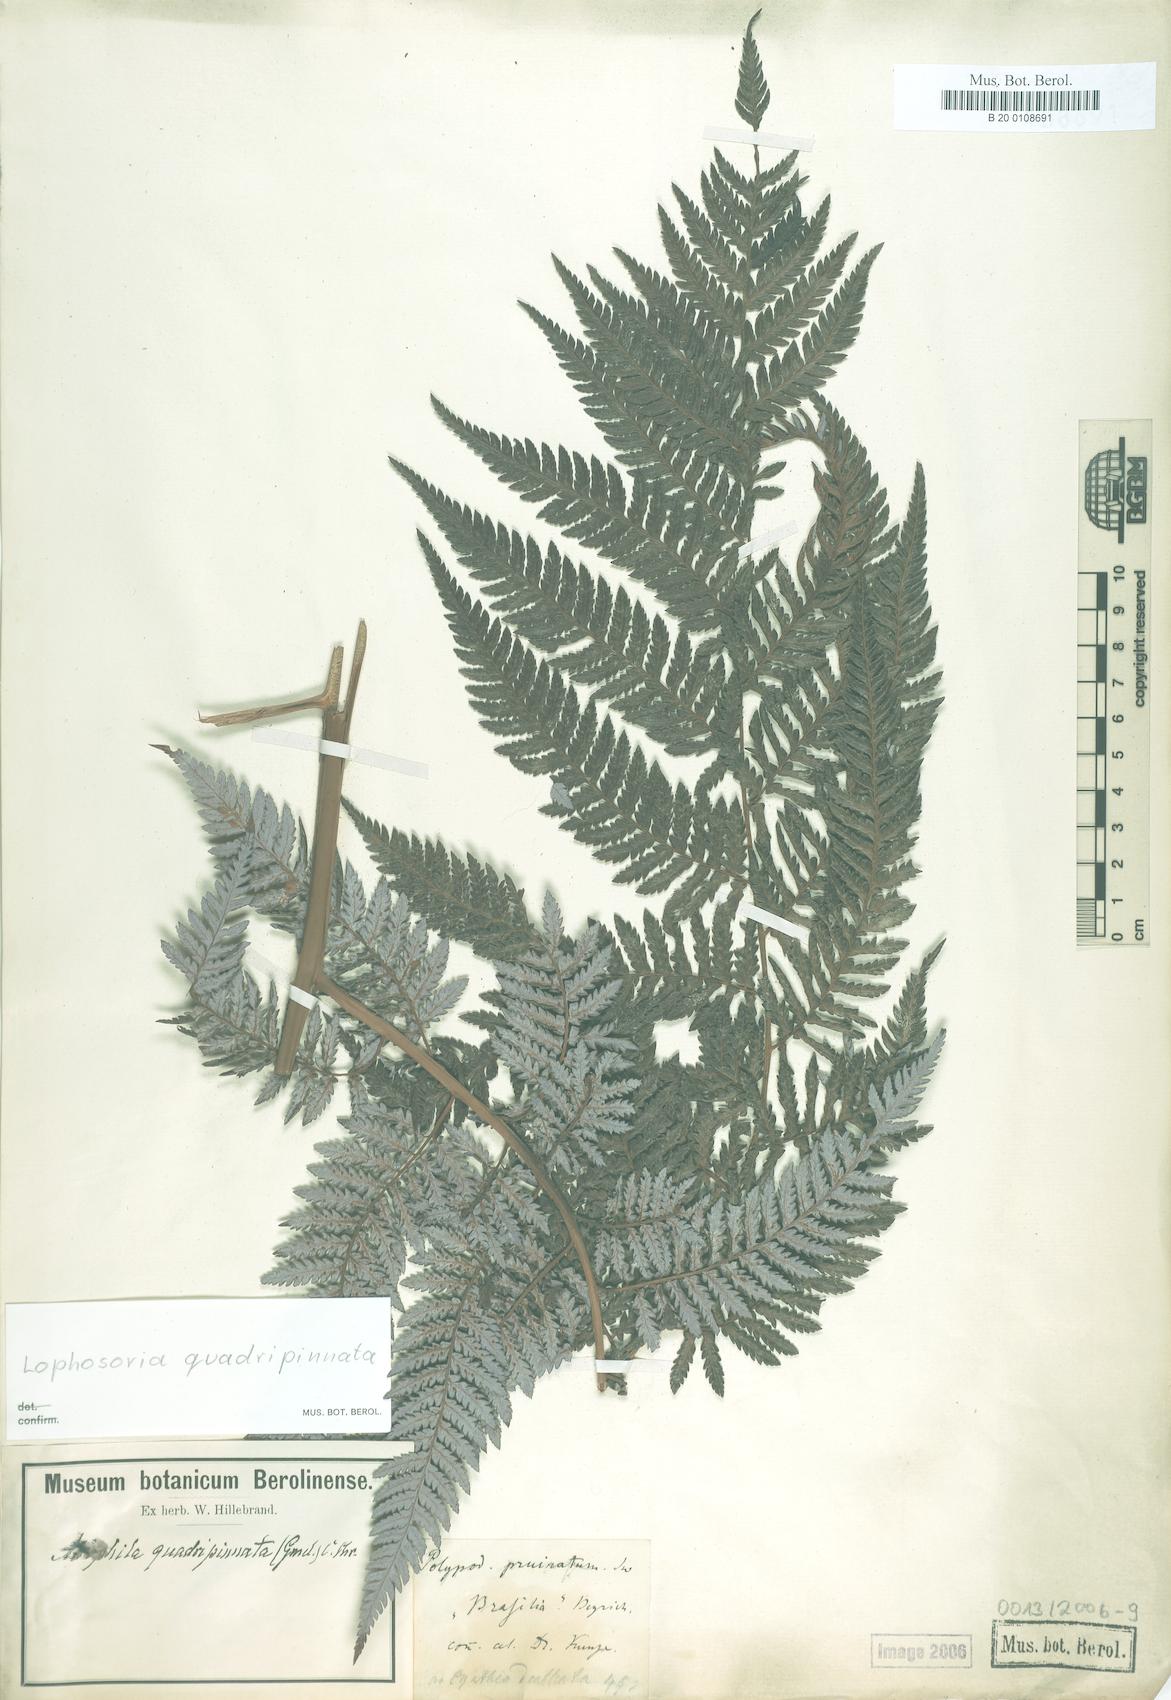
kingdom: Plantae
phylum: Tracheophyta
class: Polypodiopsida
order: Cyatheales
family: Dicksoniaceae
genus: Lophosoria
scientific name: Lophosoria quadripinnata
